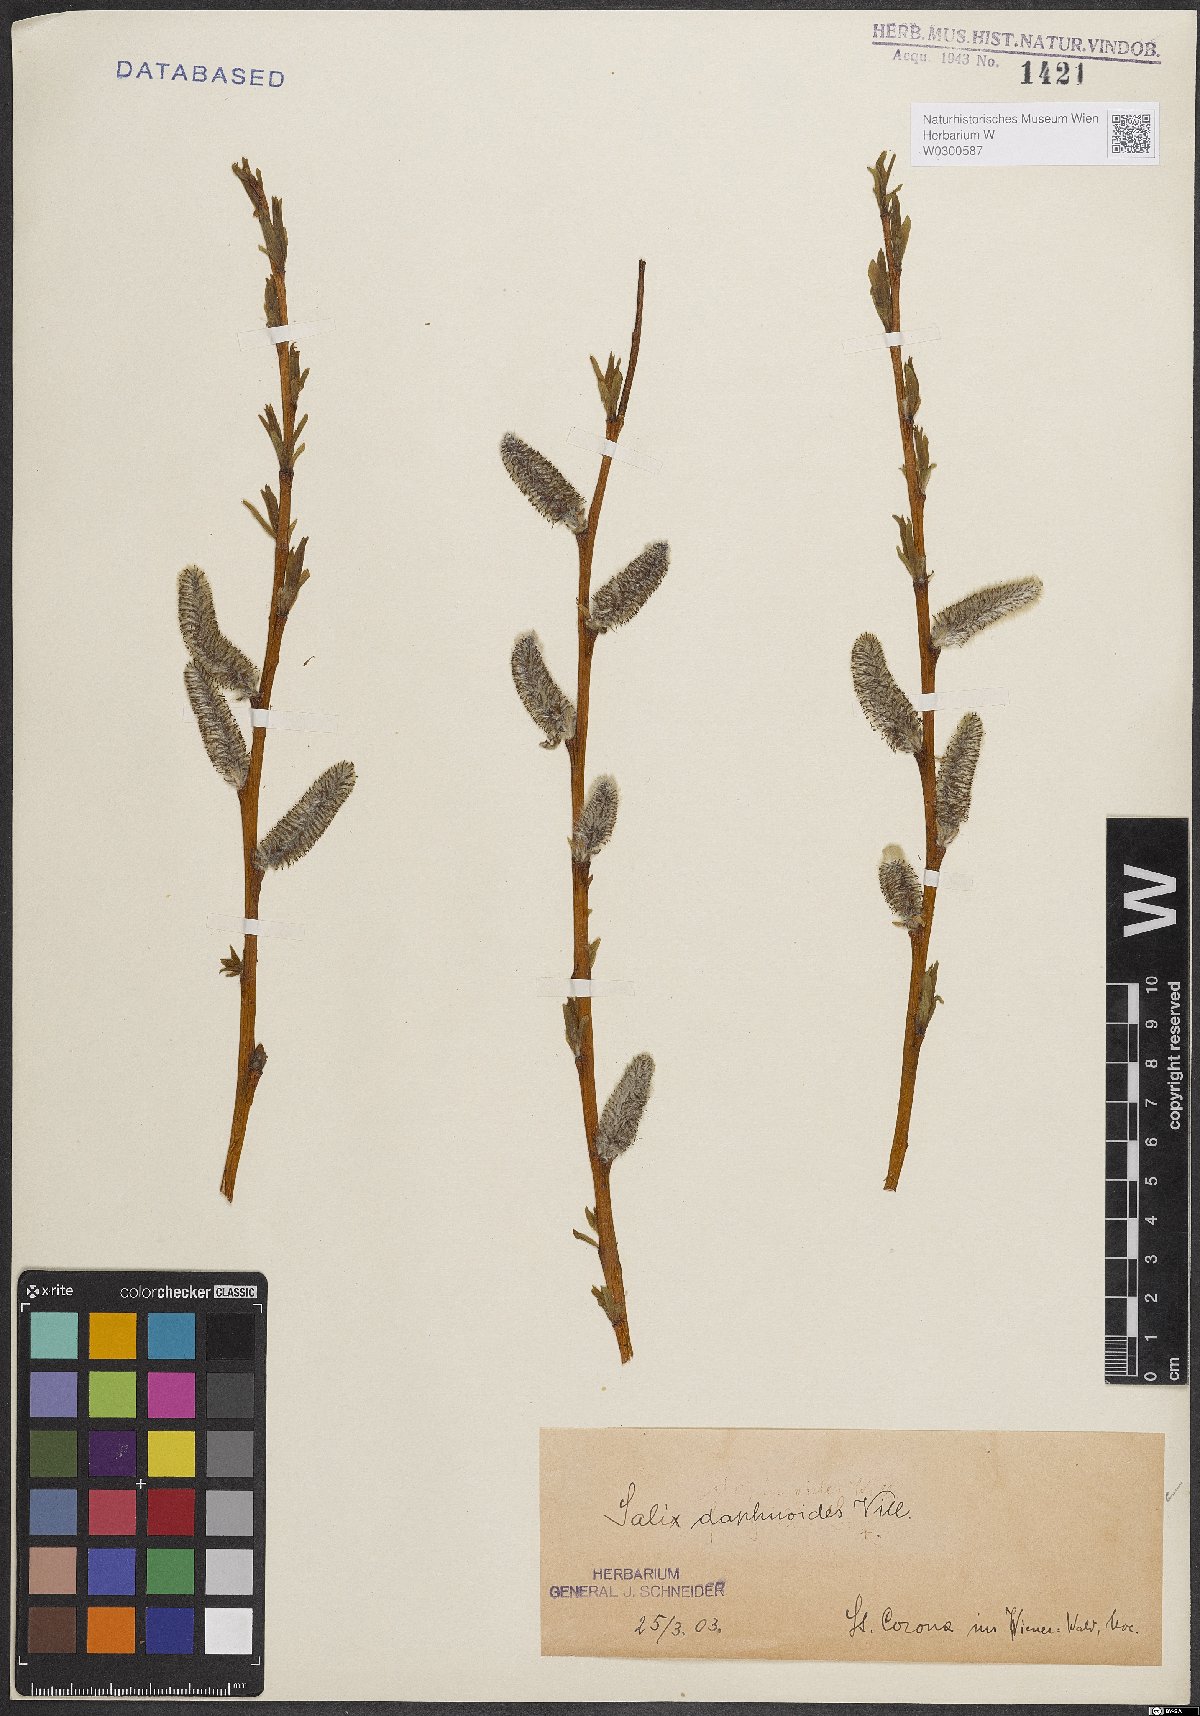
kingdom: Plantae
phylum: Tracheophyta
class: Magnoliopsida
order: Malpighiales
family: Salicaceae
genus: Salix
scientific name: Salix daphnoides
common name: European violet-willow
